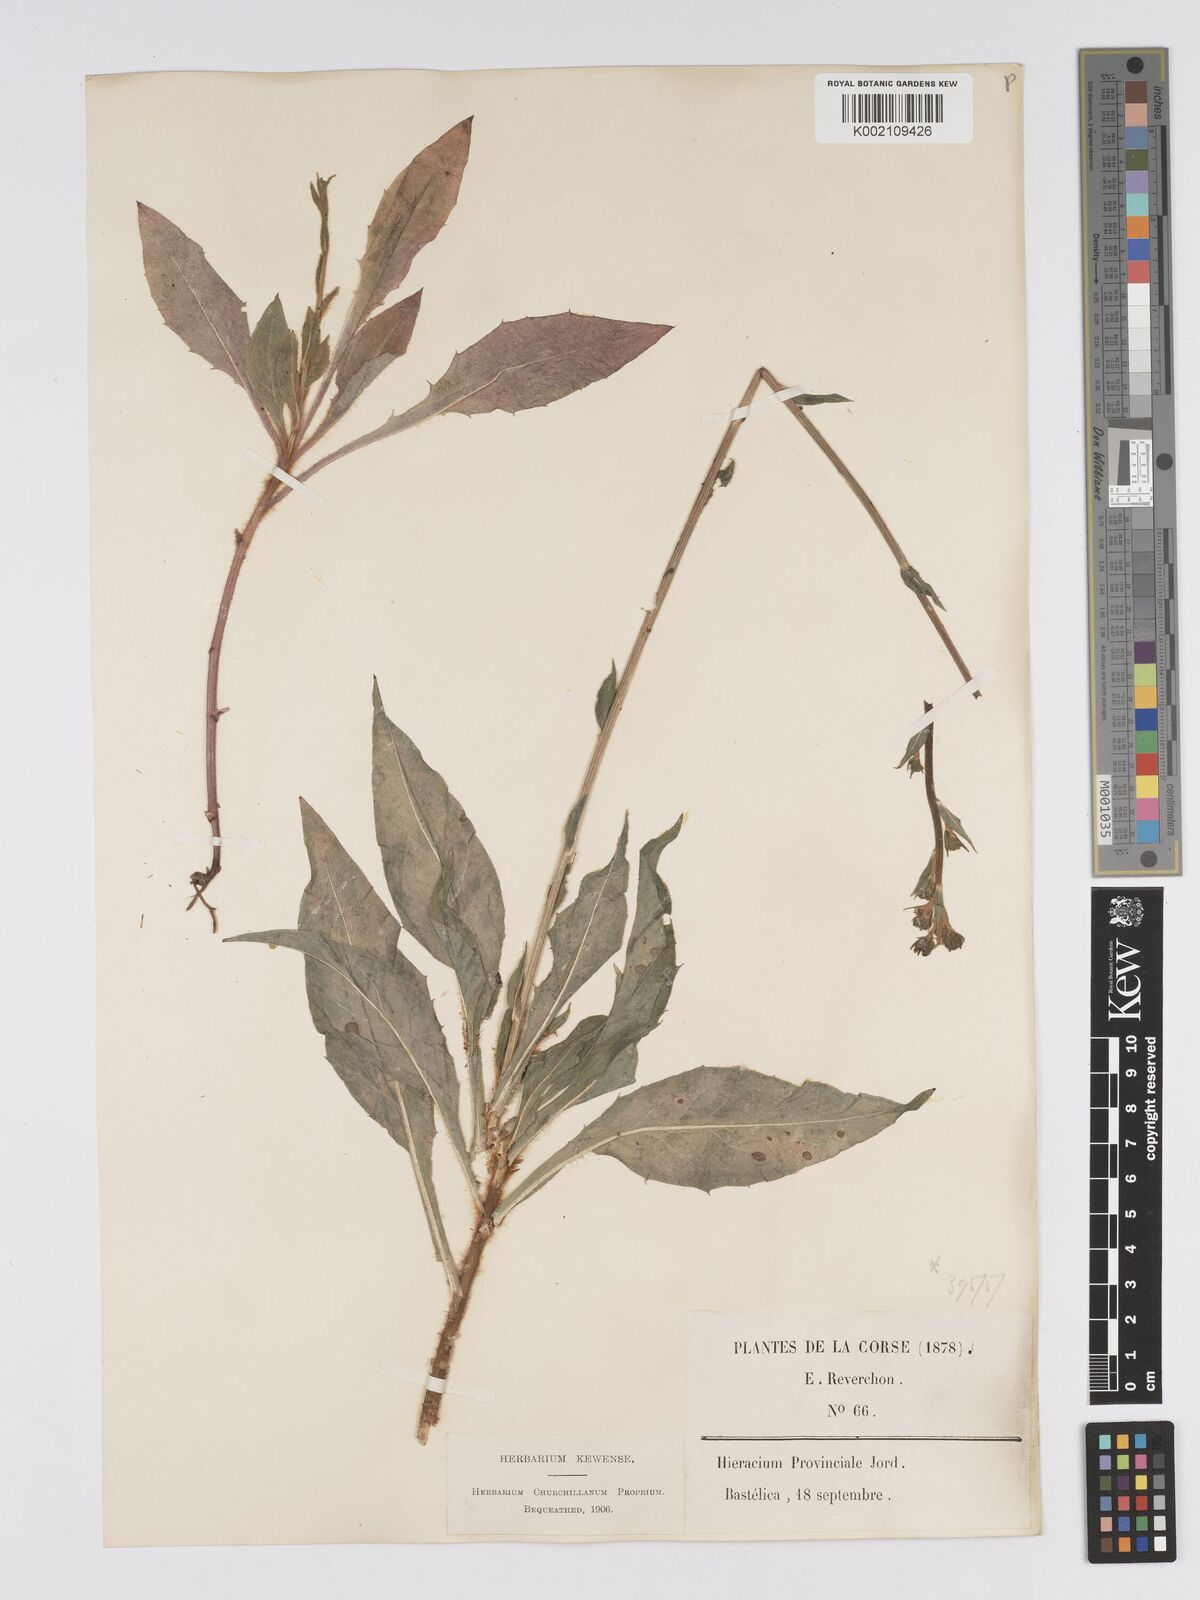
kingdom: Plantae
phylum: Tracheophyta
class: Magnoliopsida
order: Asterales
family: Asteraceae
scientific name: Asteraceae
